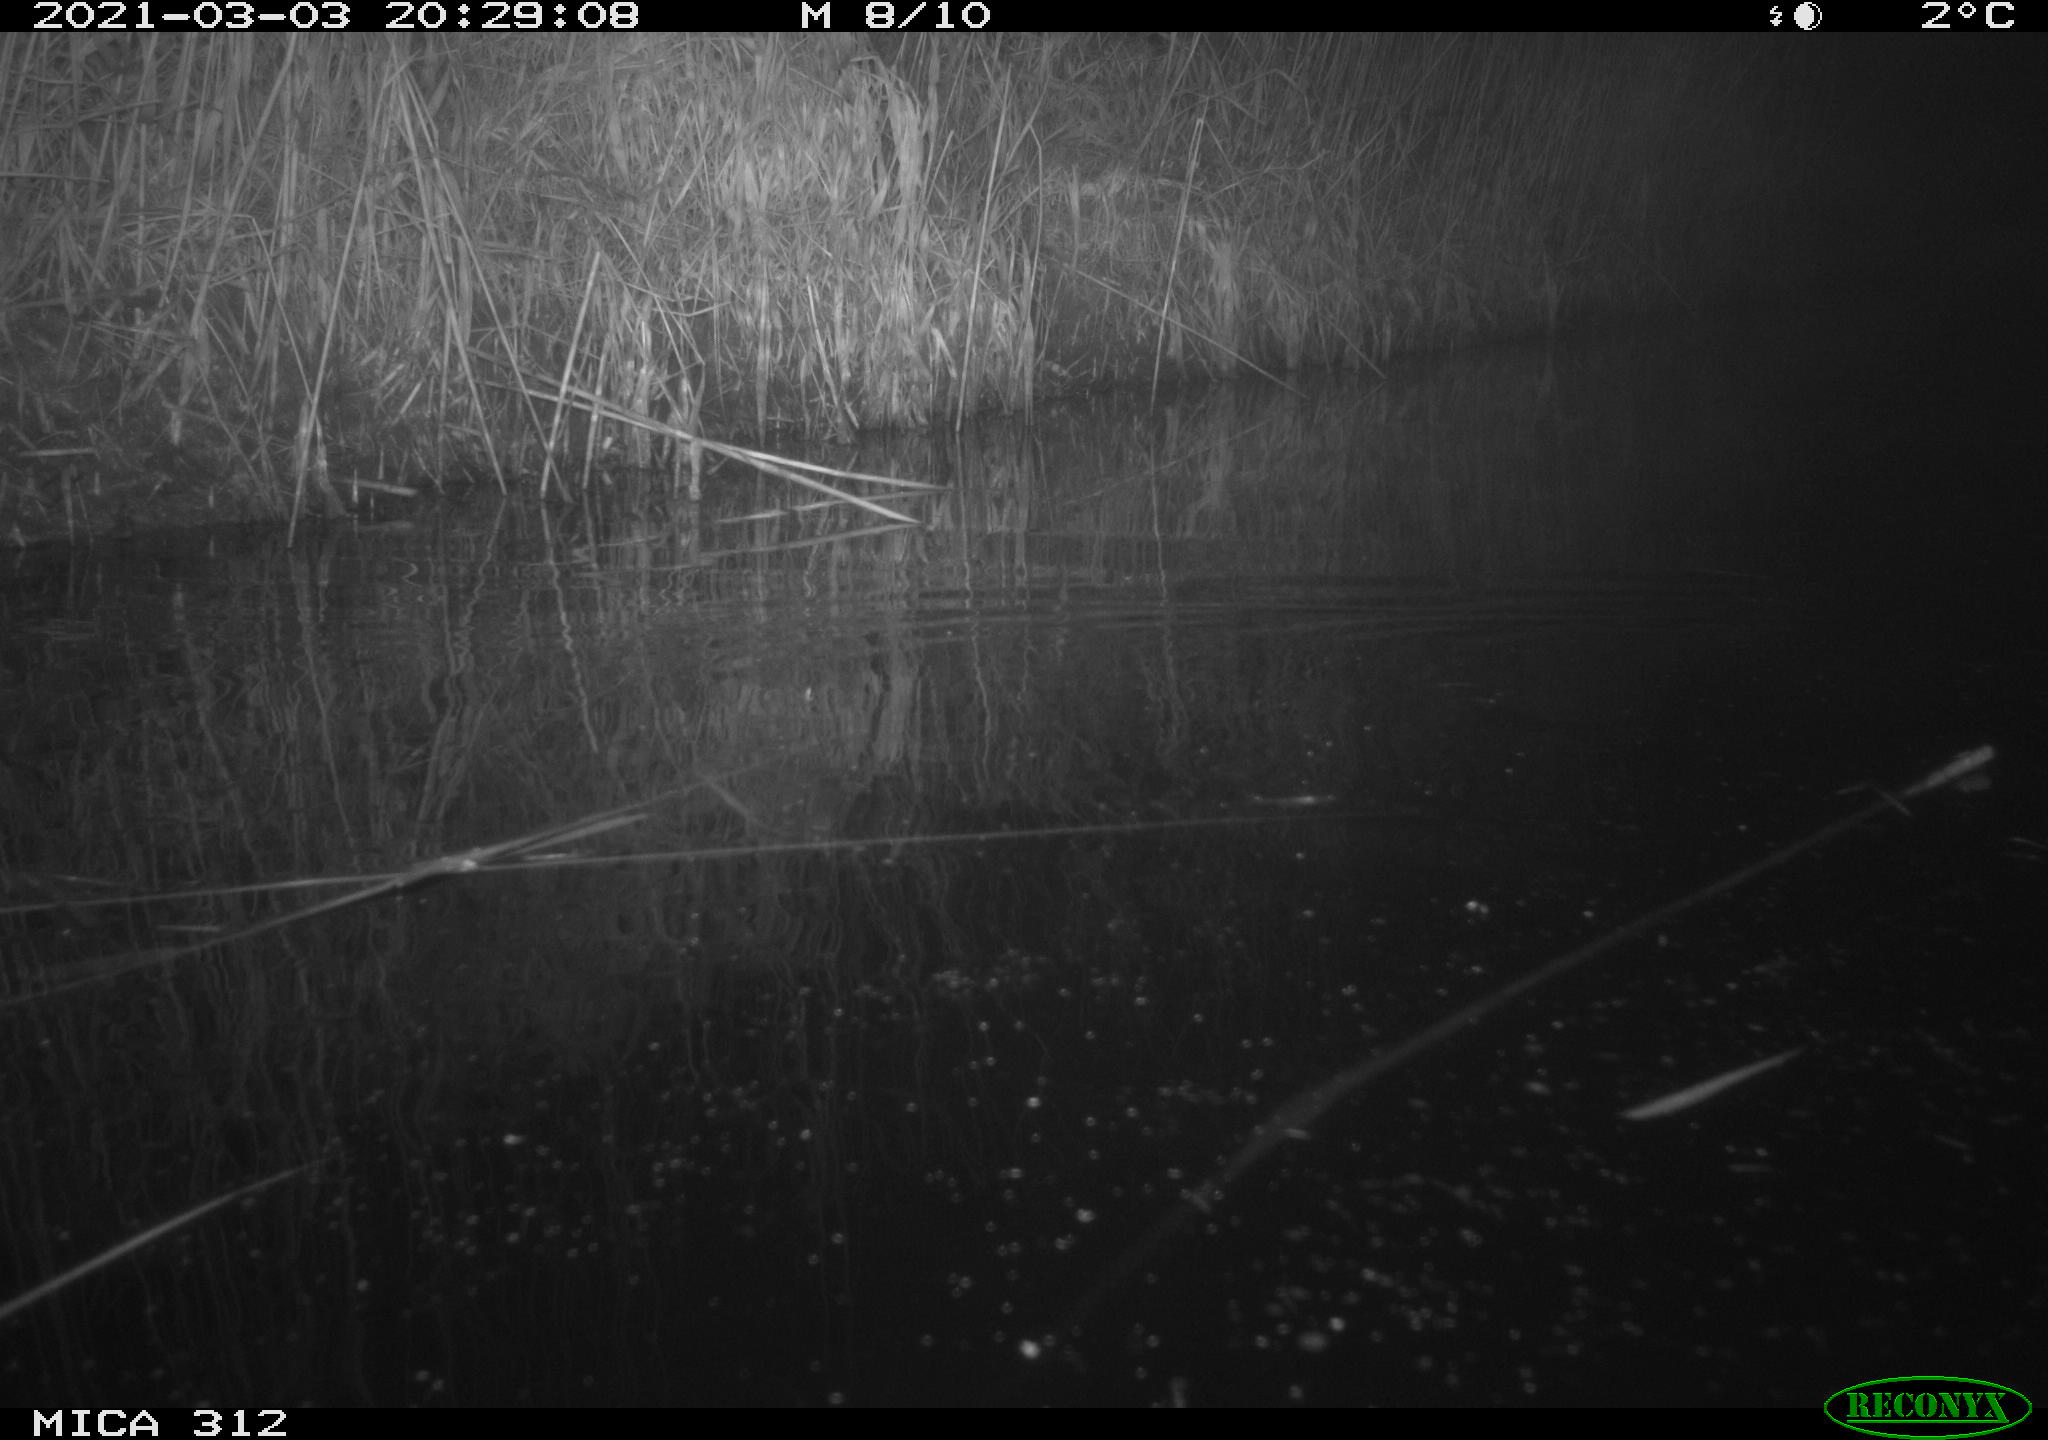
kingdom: Animalia
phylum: Chordata
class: Mammalia
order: Rodentia
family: Muridae
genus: Rattus
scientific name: Rattus norvegicus
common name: Brown rat
